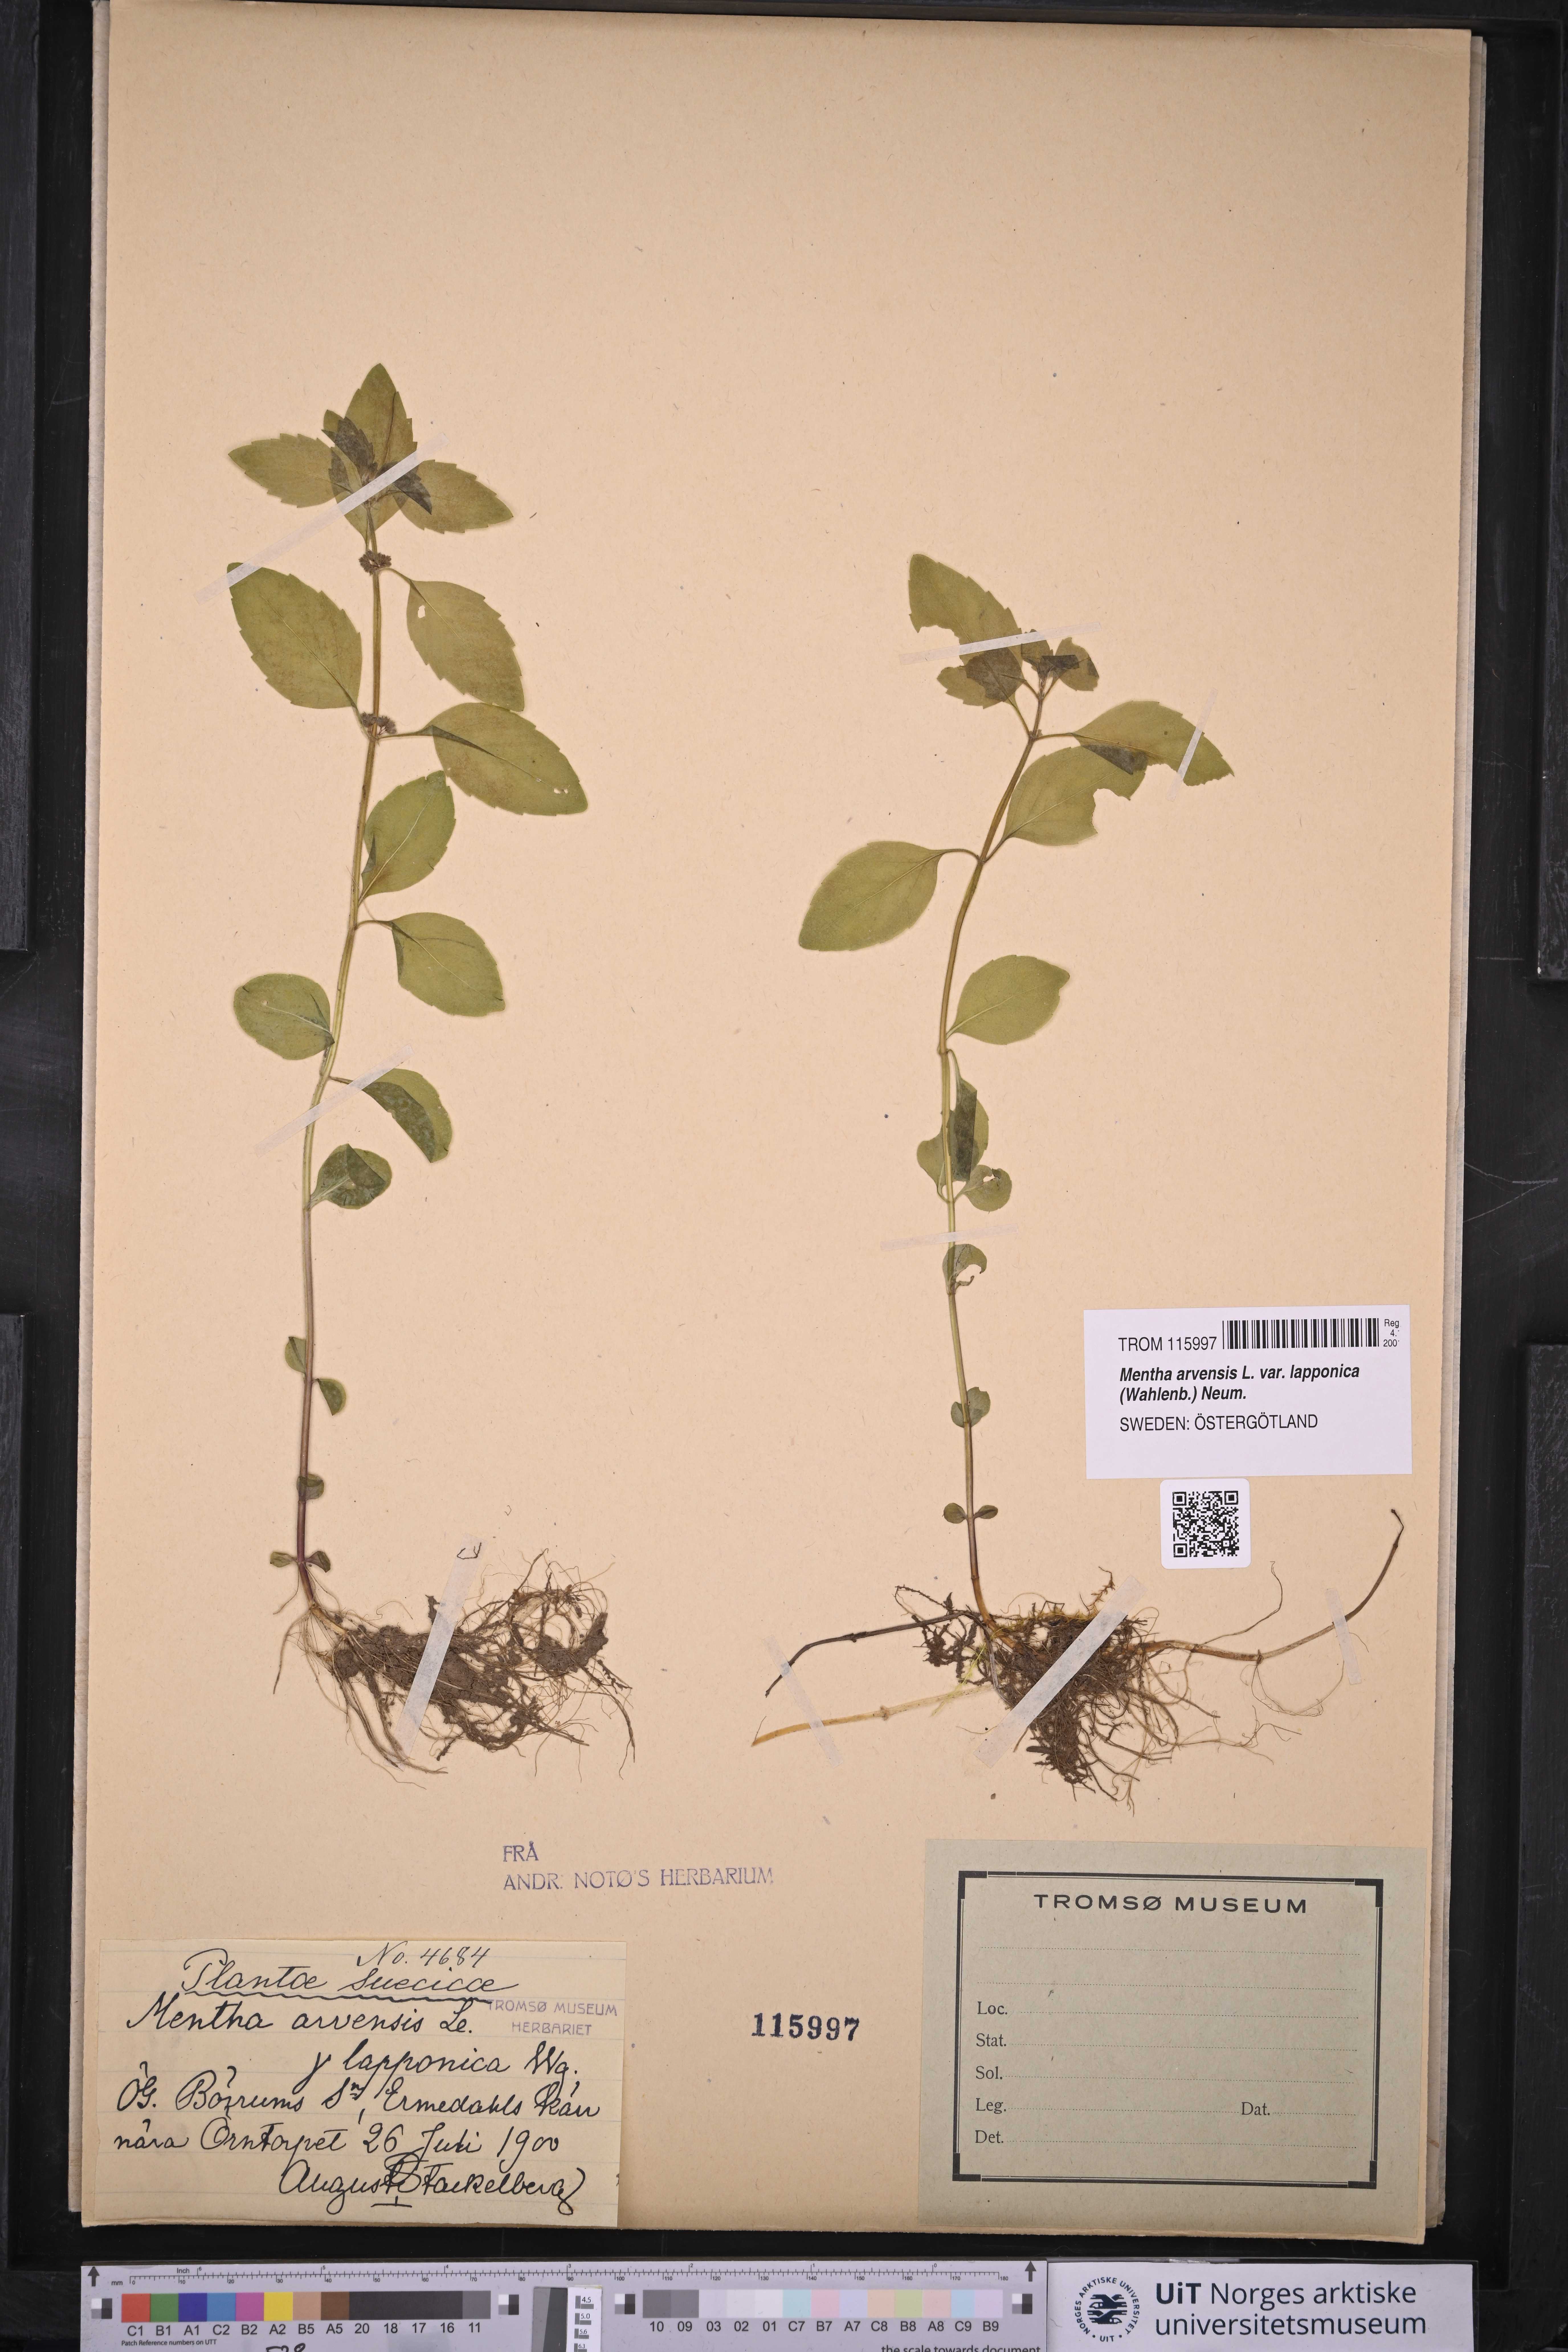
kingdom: Plantae
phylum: Tracheophyta
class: Magnoliopsida
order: Lamiales
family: Lamiaceae
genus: Mentha
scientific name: Mentha arvensis
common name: Corn mint
